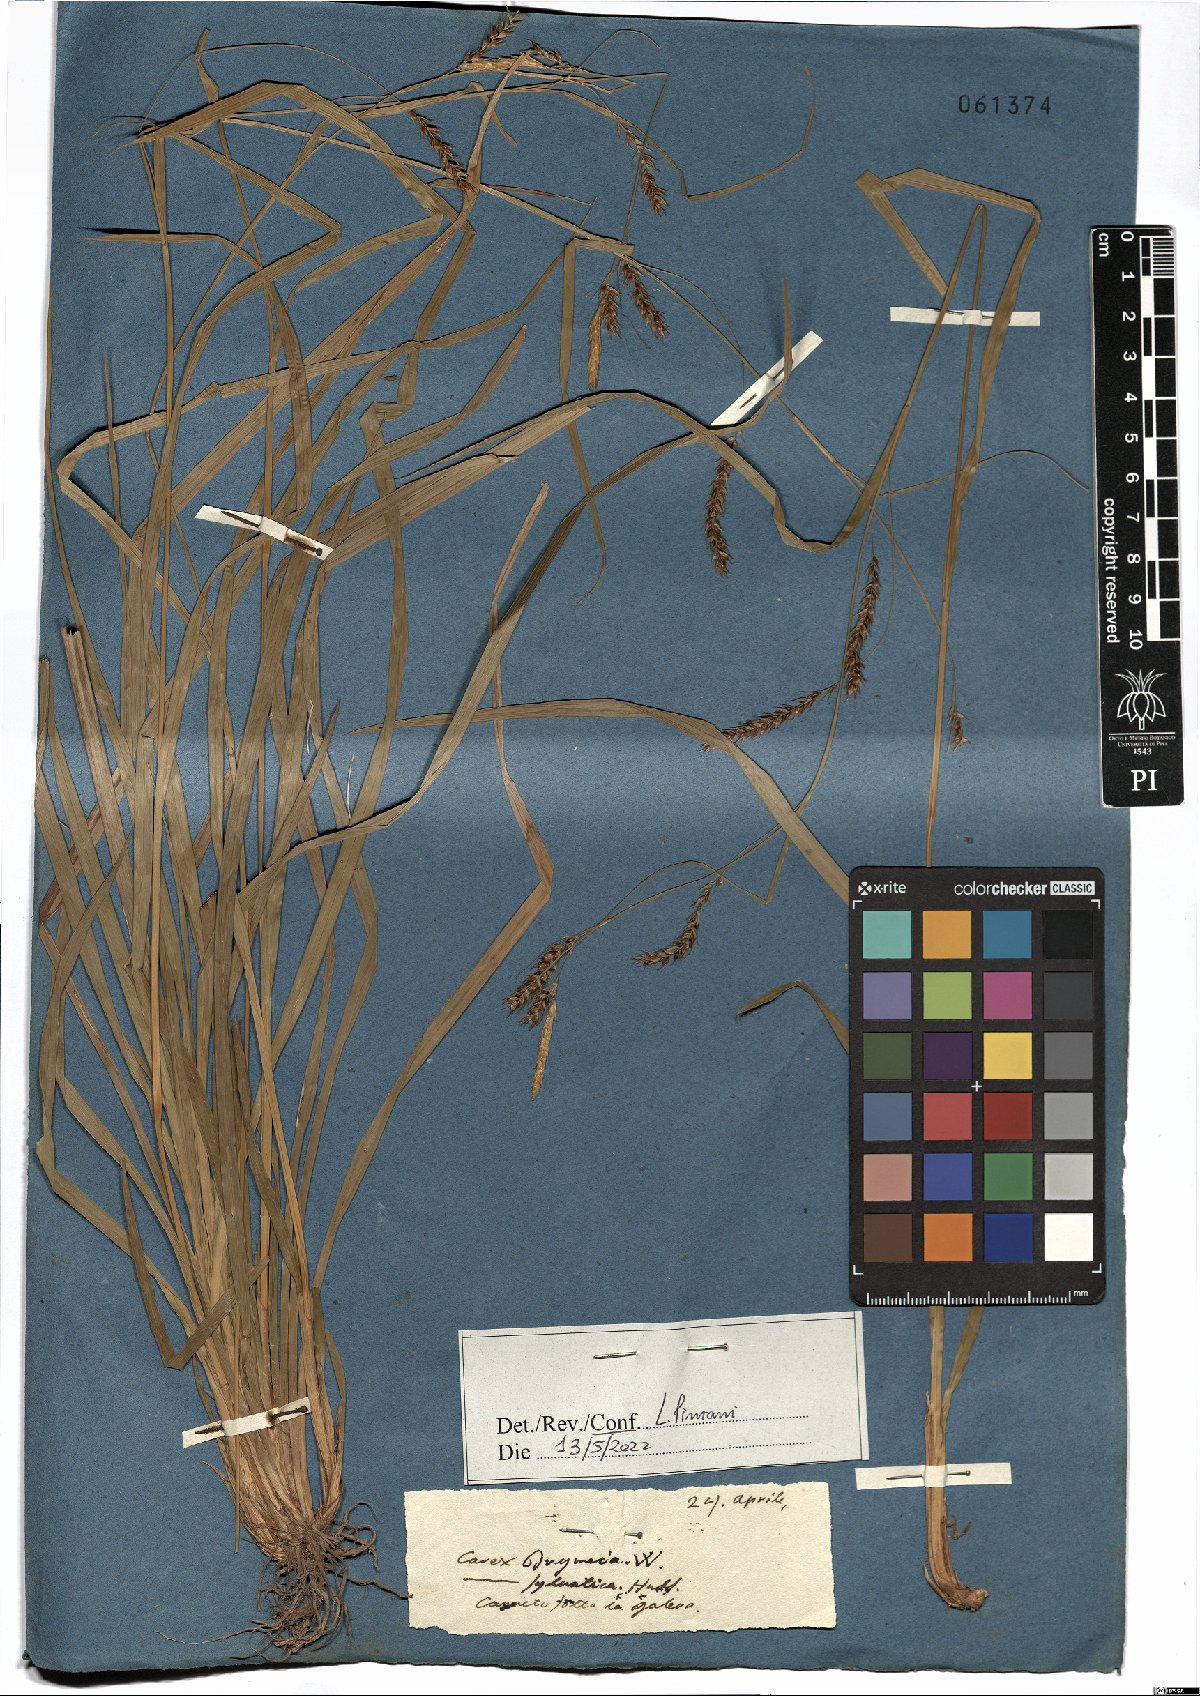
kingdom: Plantae
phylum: Tracheophyta
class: Liliopsida
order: Poales
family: Cyperaceae
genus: Carex
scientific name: Carex sylvatica
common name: Wood-sedge
